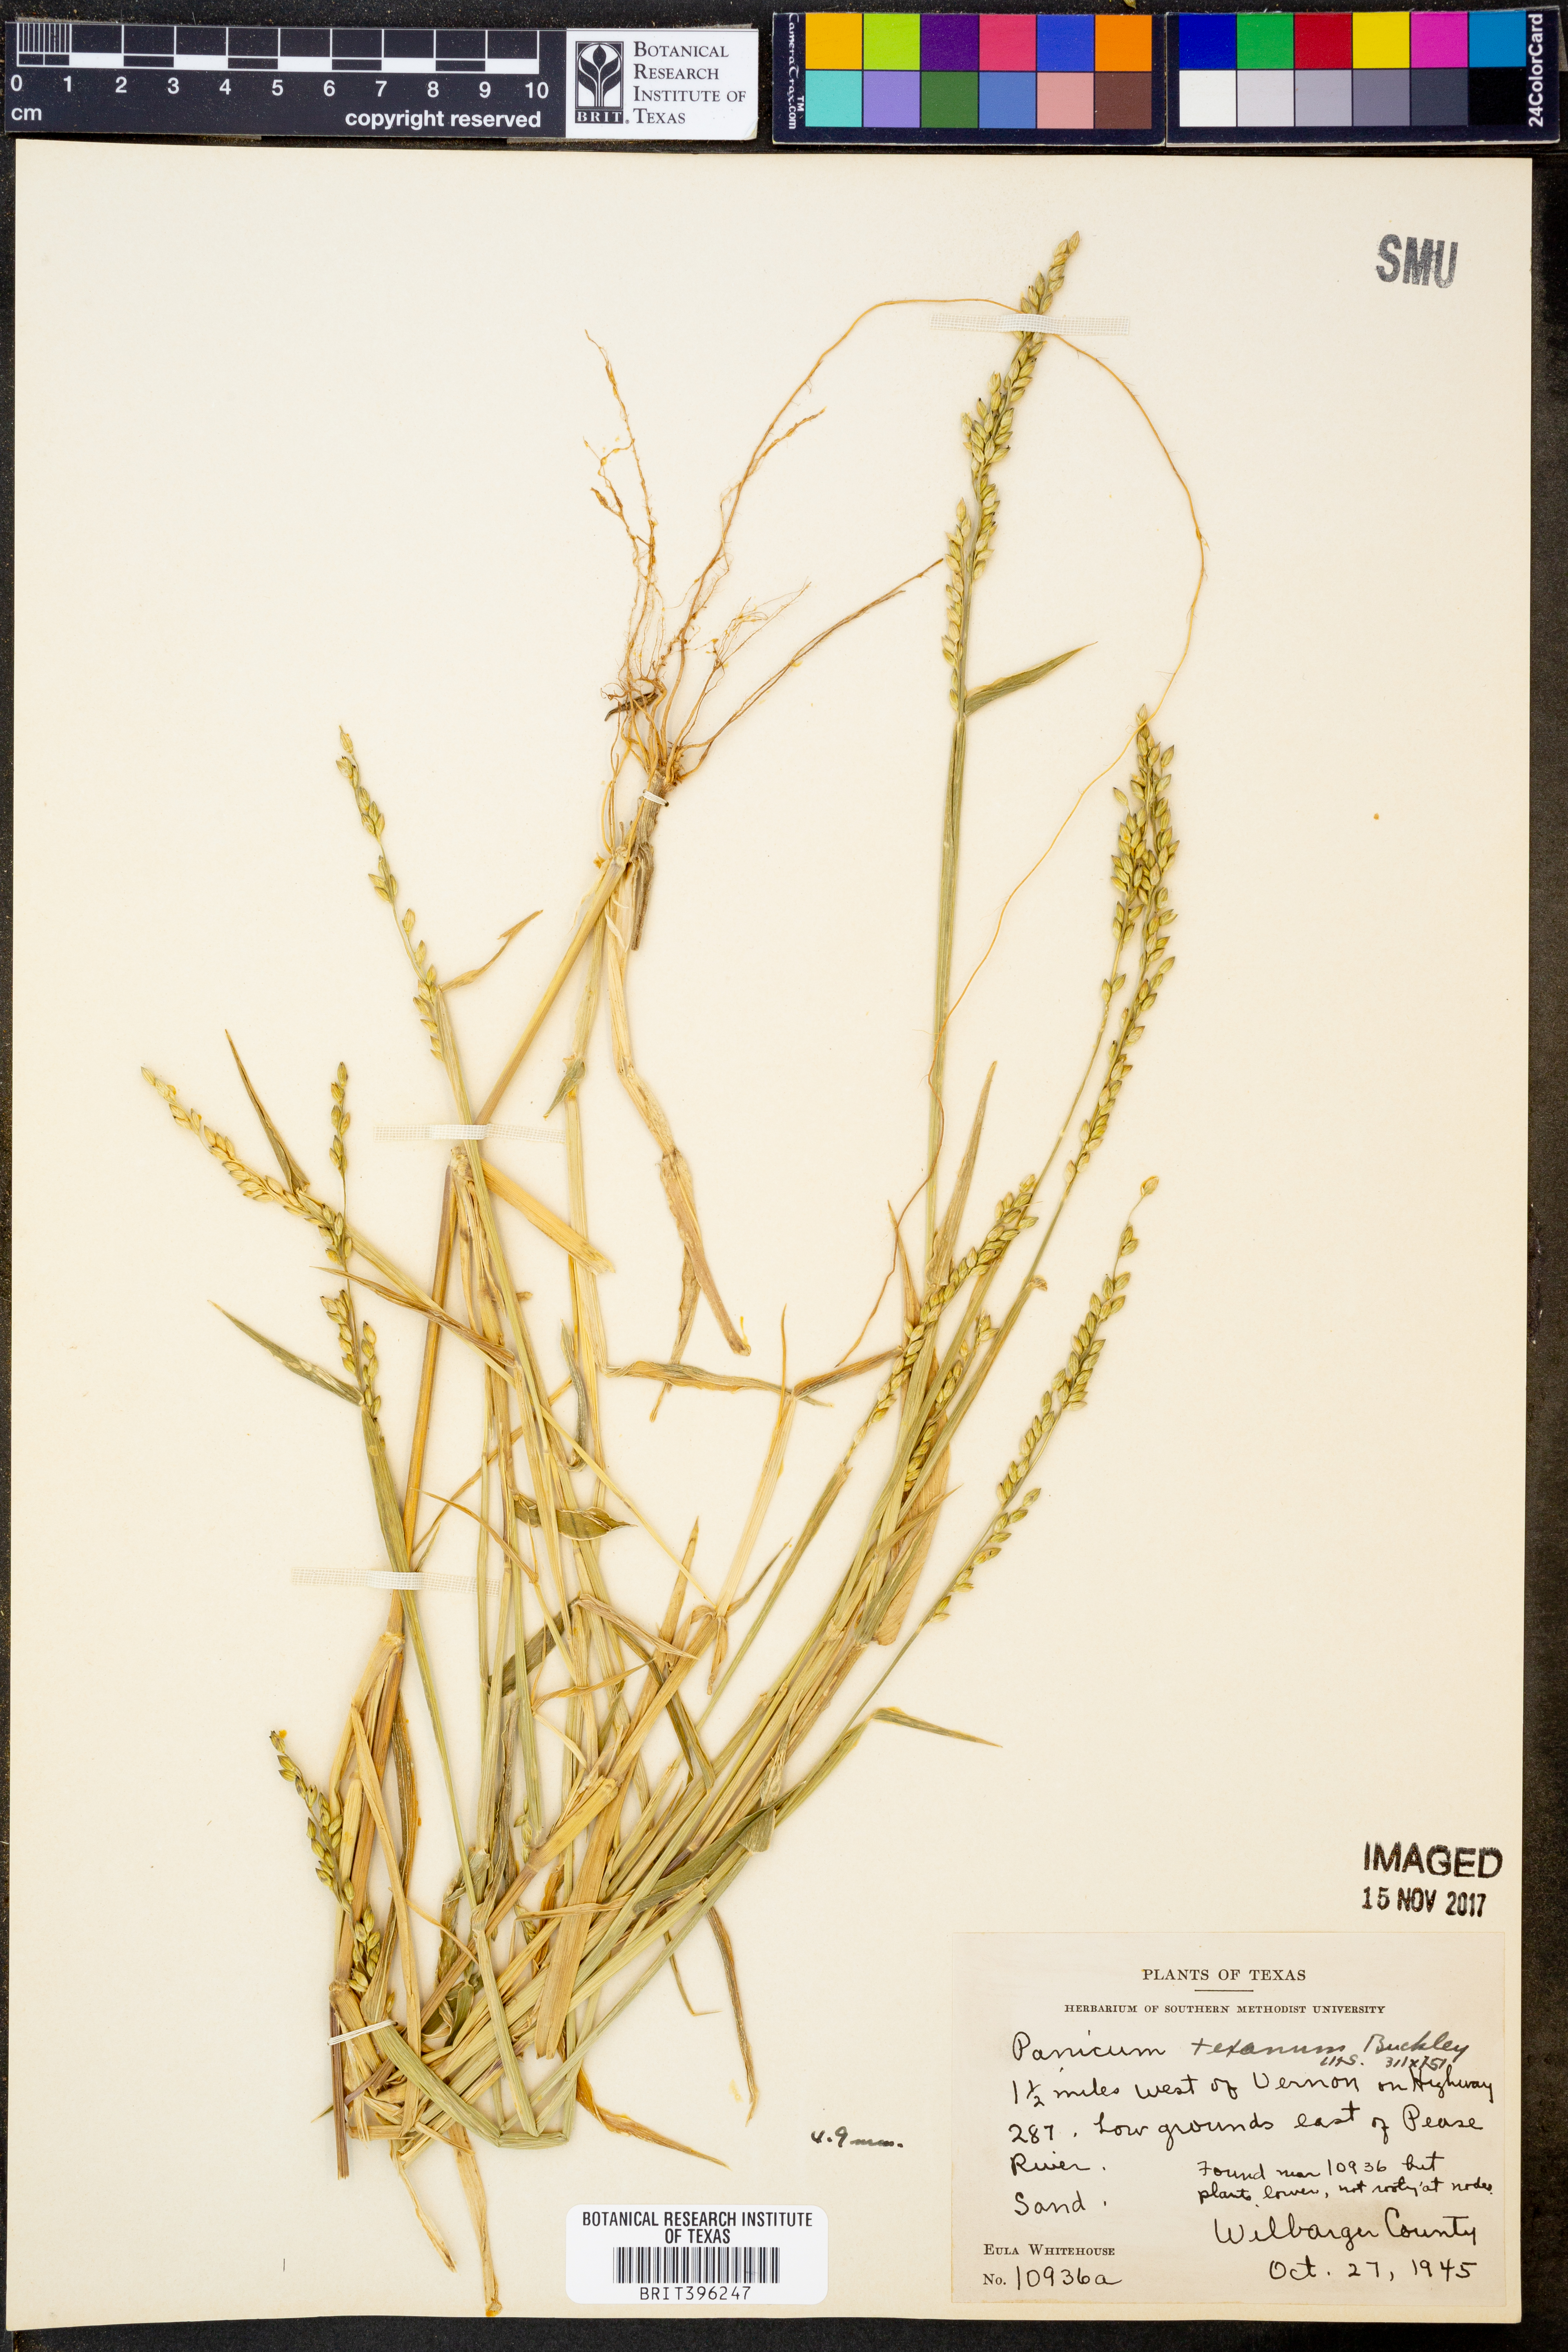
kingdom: Plantae
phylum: Tracheophyta
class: Liliopsida
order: Poales
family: Poaceae
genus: Urochloa
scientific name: Urochloa texana
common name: Texas millet
